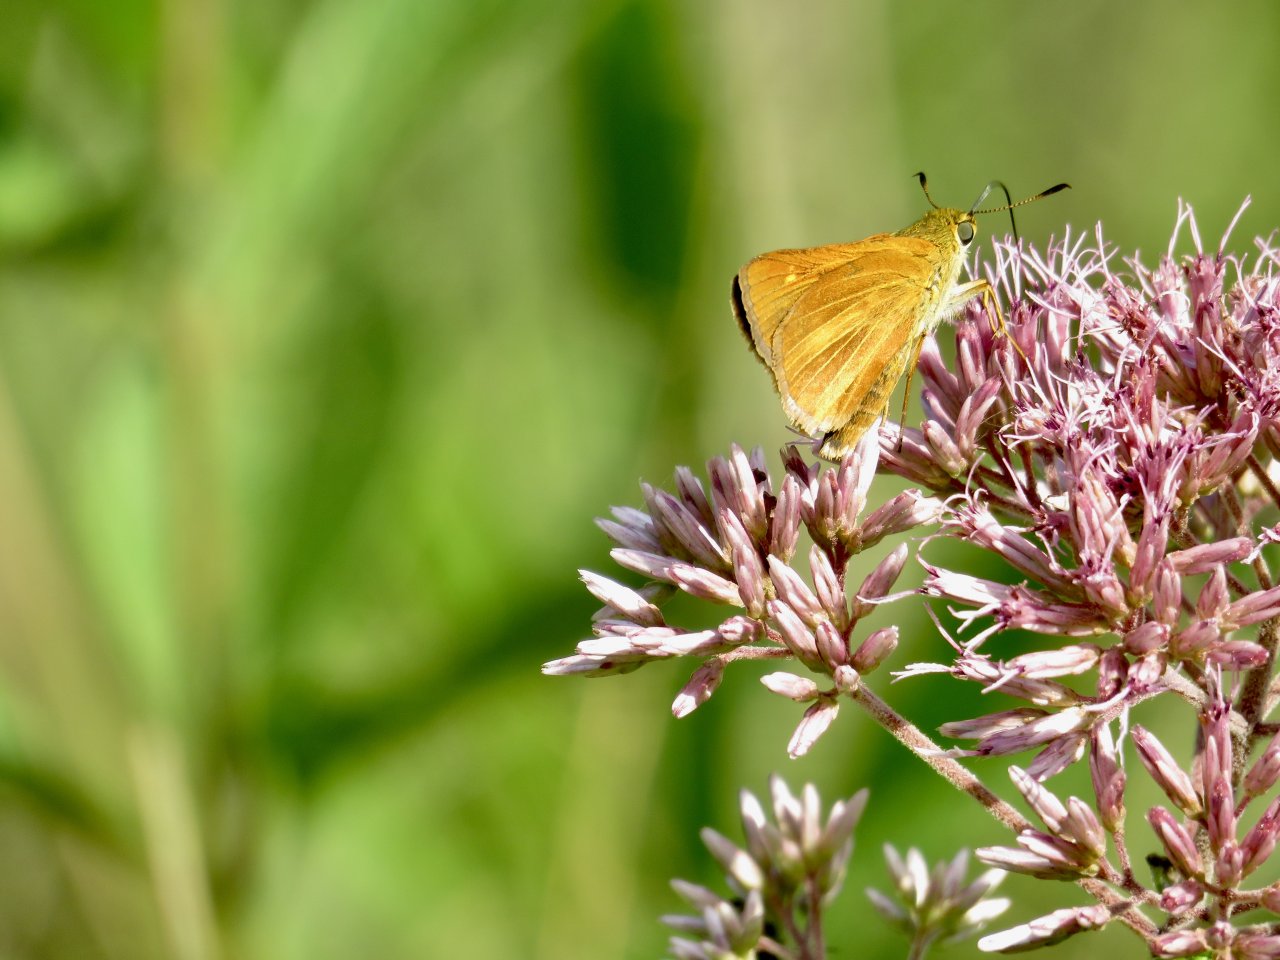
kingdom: Animalia
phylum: Arthropoda
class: Insecta
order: Lepidoptera
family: Hesperiidae
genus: Euphyes
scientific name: Euphyes dion
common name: Dion Skipper
